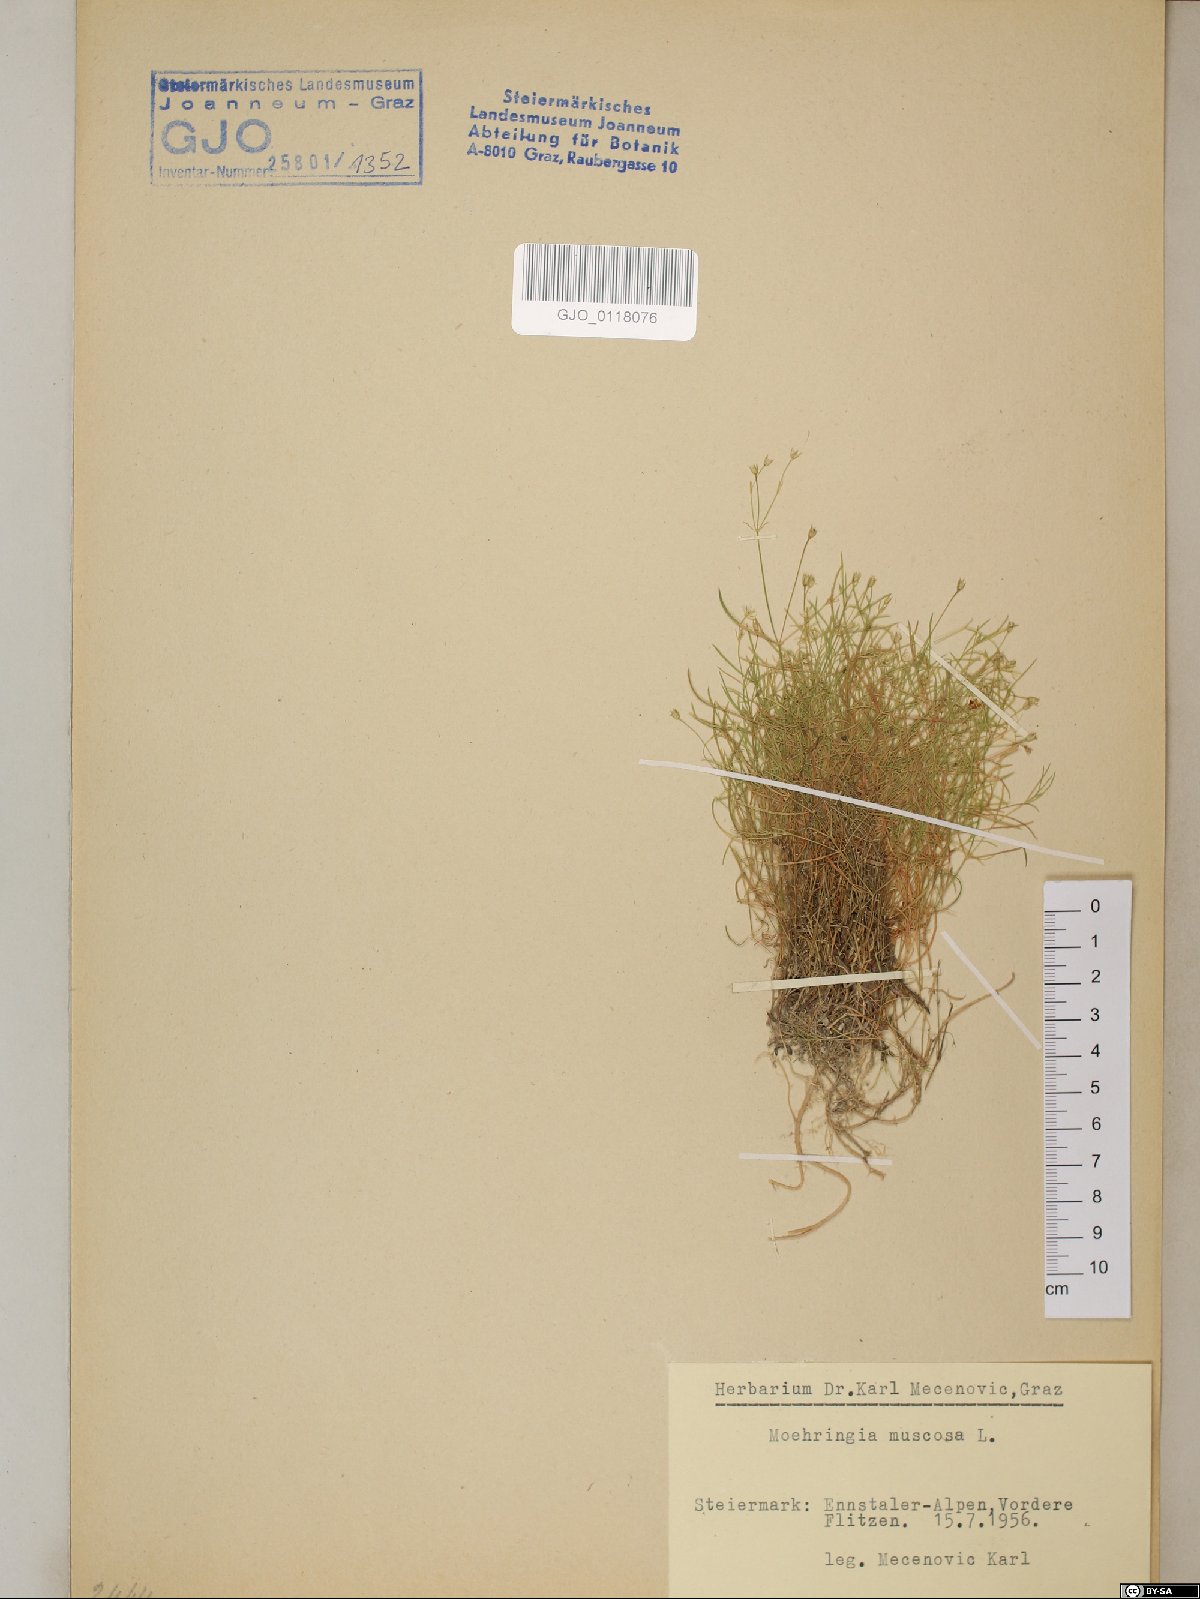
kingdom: Plantae
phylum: Tracheophyta
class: Magnoliopsida
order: Caryophyllales
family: Caryophyllaceae
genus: Moehringia
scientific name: Moehringia muscosa
